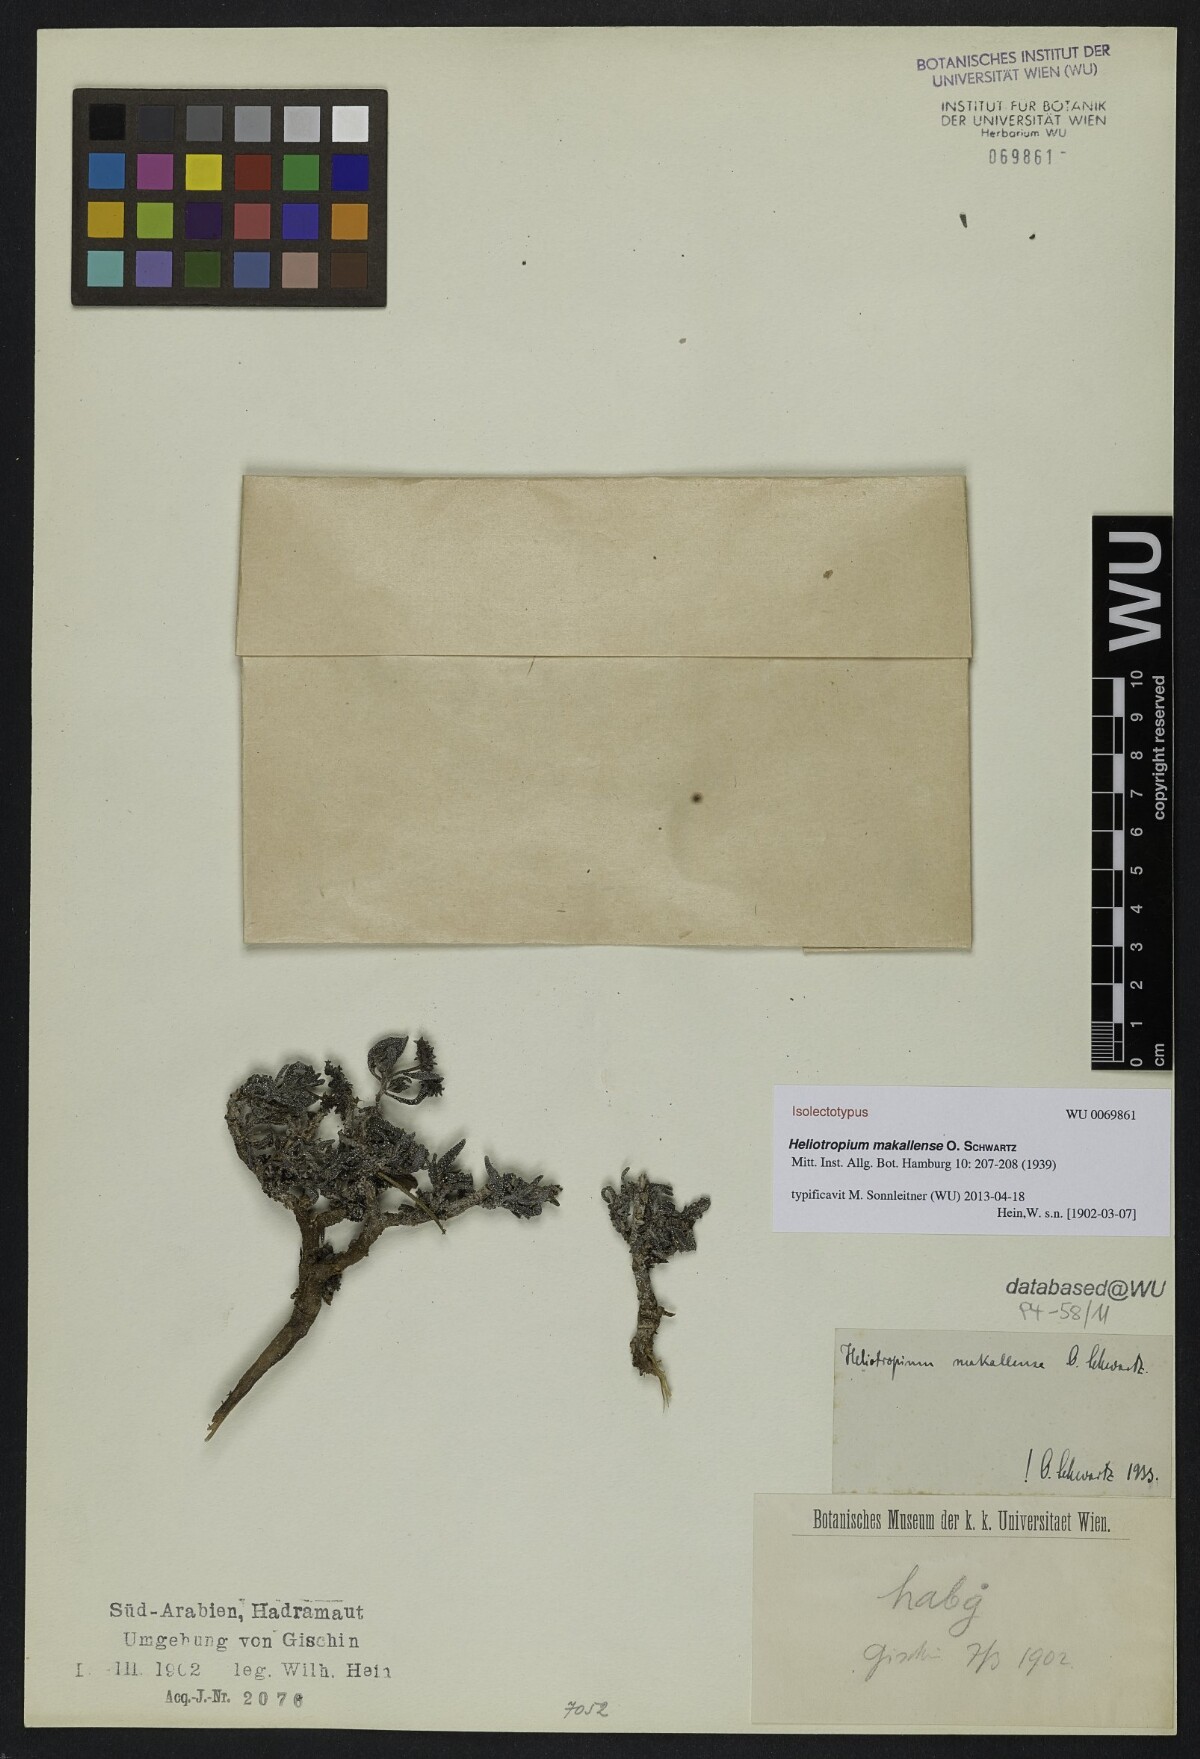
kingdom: Plantae
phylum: Tracheophyta
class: Magnoliopsida
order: Boraginales
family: Heliotropiaceae
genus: Heliotropium
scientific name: Heliotropium bacciferum
